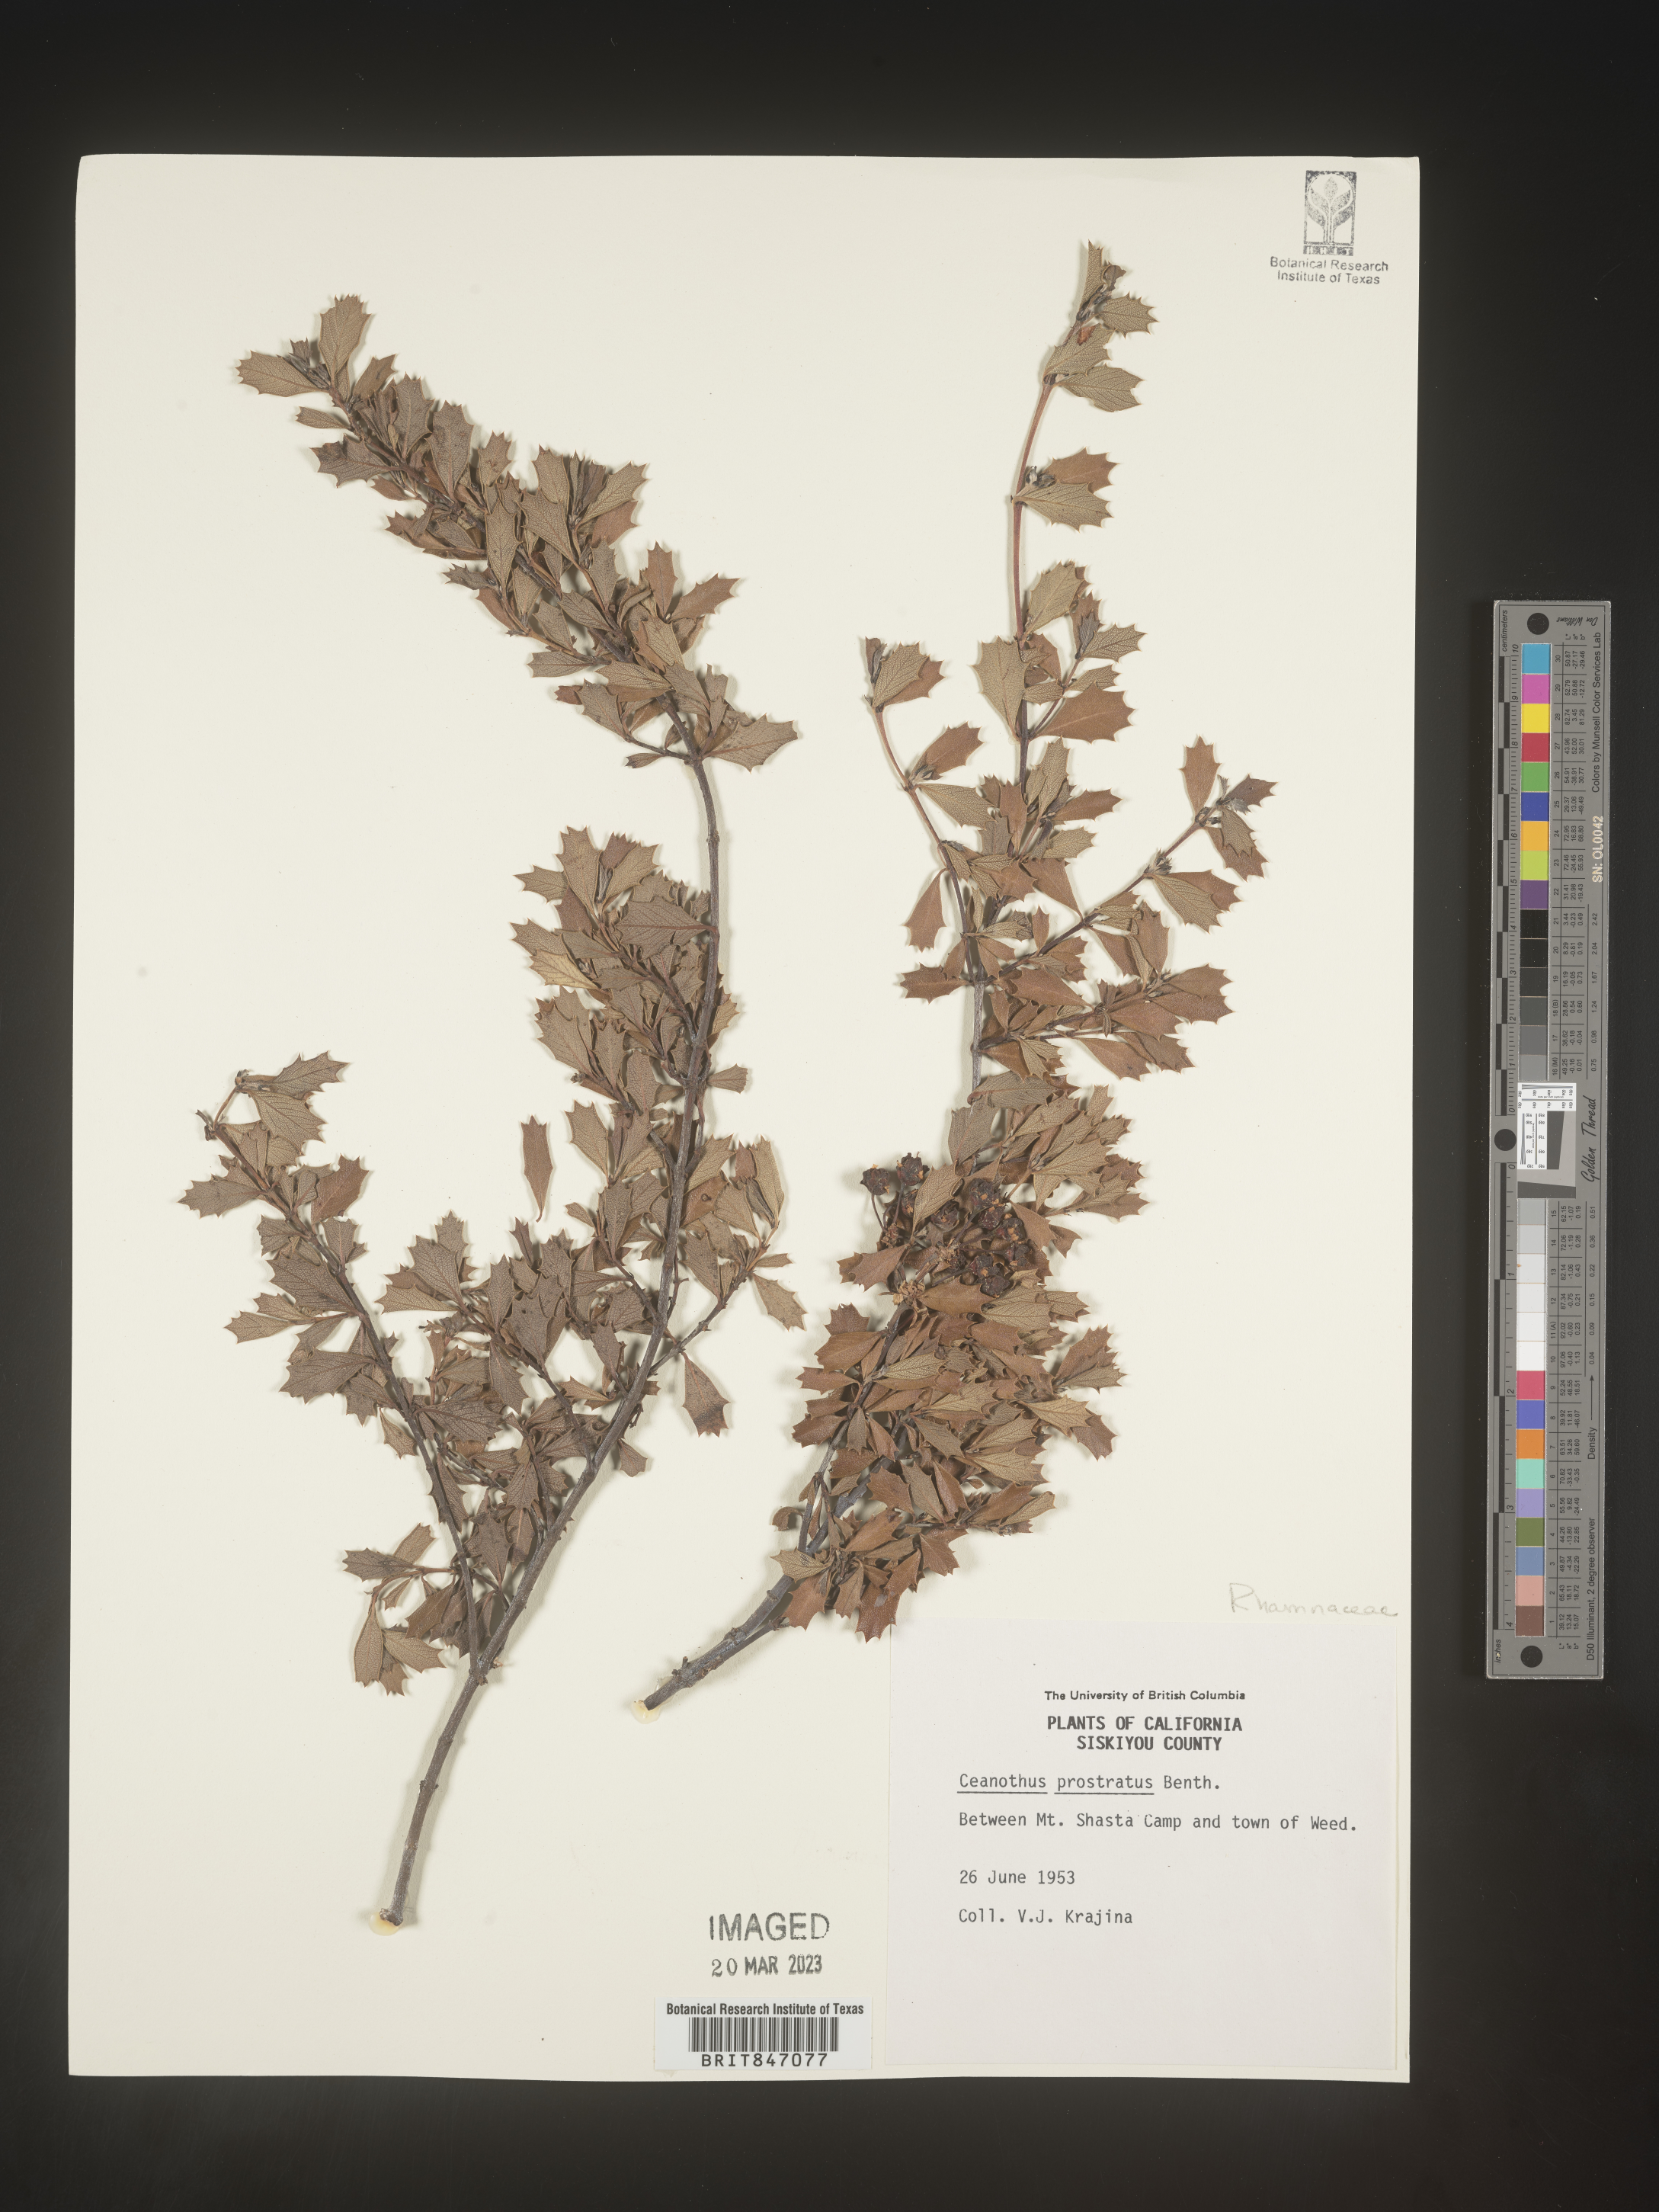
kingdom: Plantae
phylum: Tracheophyta
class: Magnoliopsida
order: Rosales
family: Rhamnaceae
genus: Ceanothus
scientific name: Ceanothus
